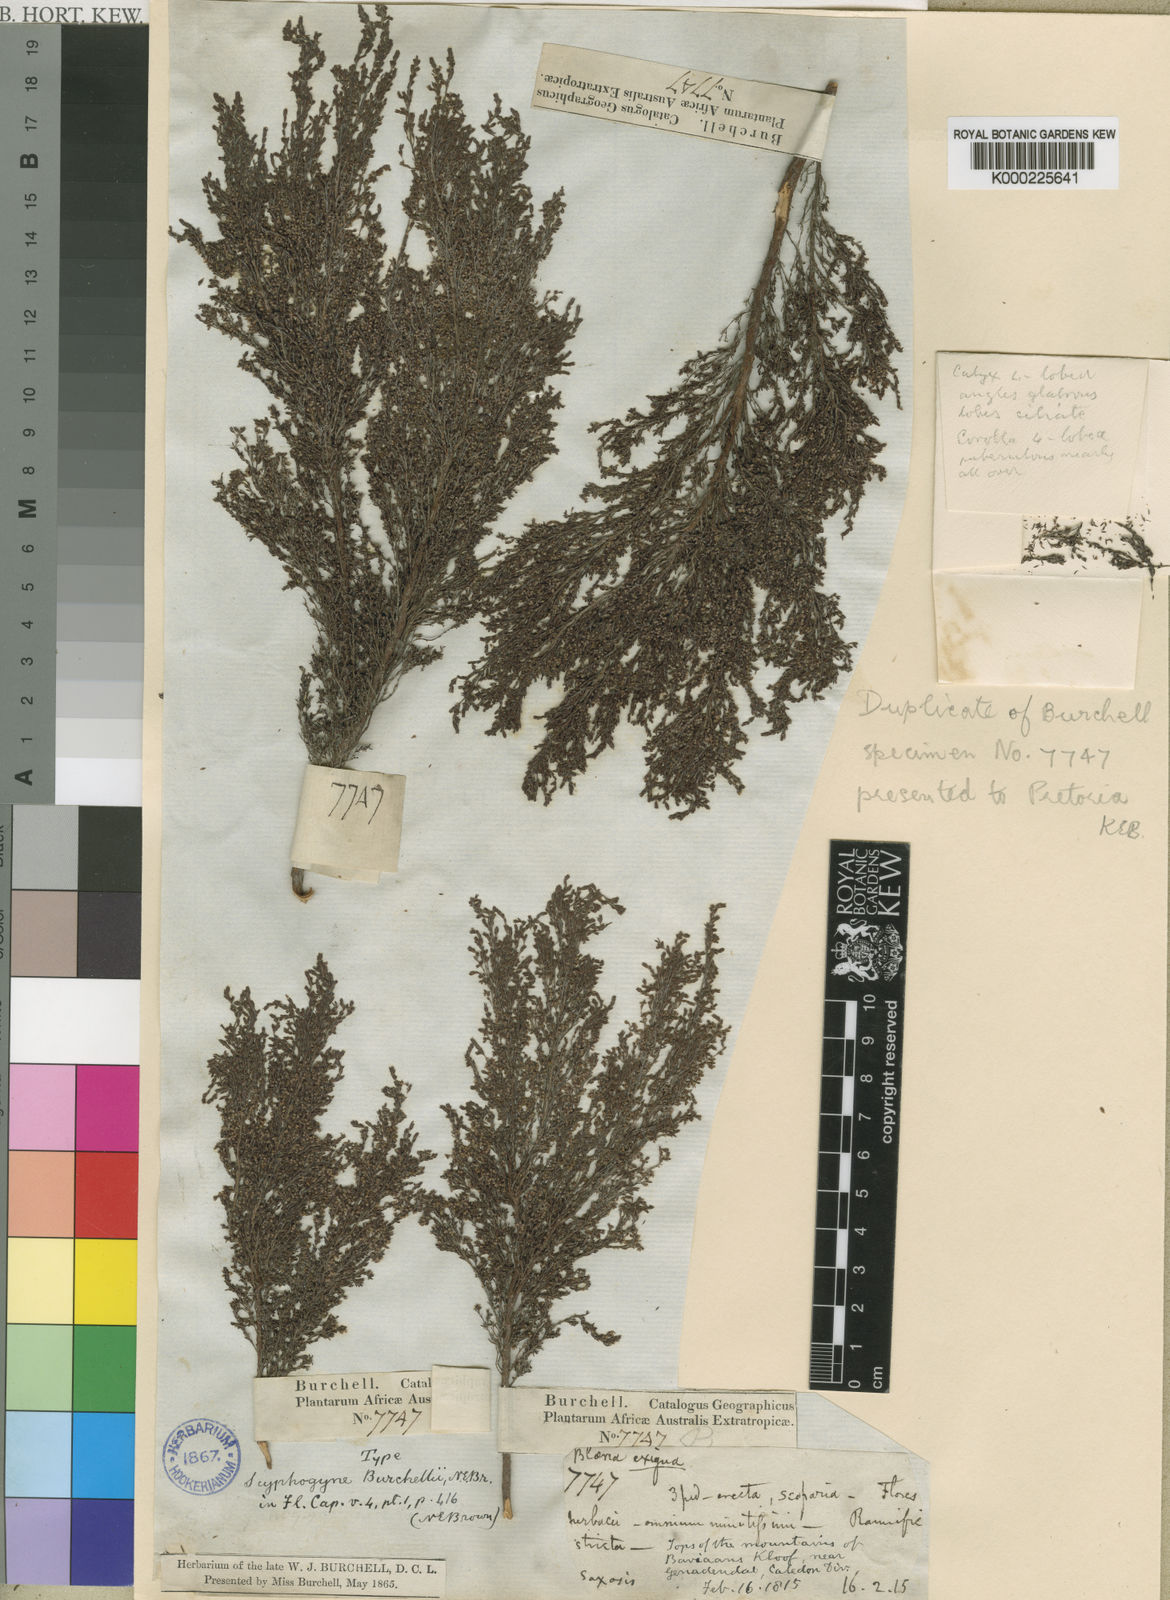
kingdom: Plantae
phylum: Tracheophyta
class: Magnoliopsida
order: Ericales
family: Ericaceae
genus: Erica
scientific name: Erica urceolata
